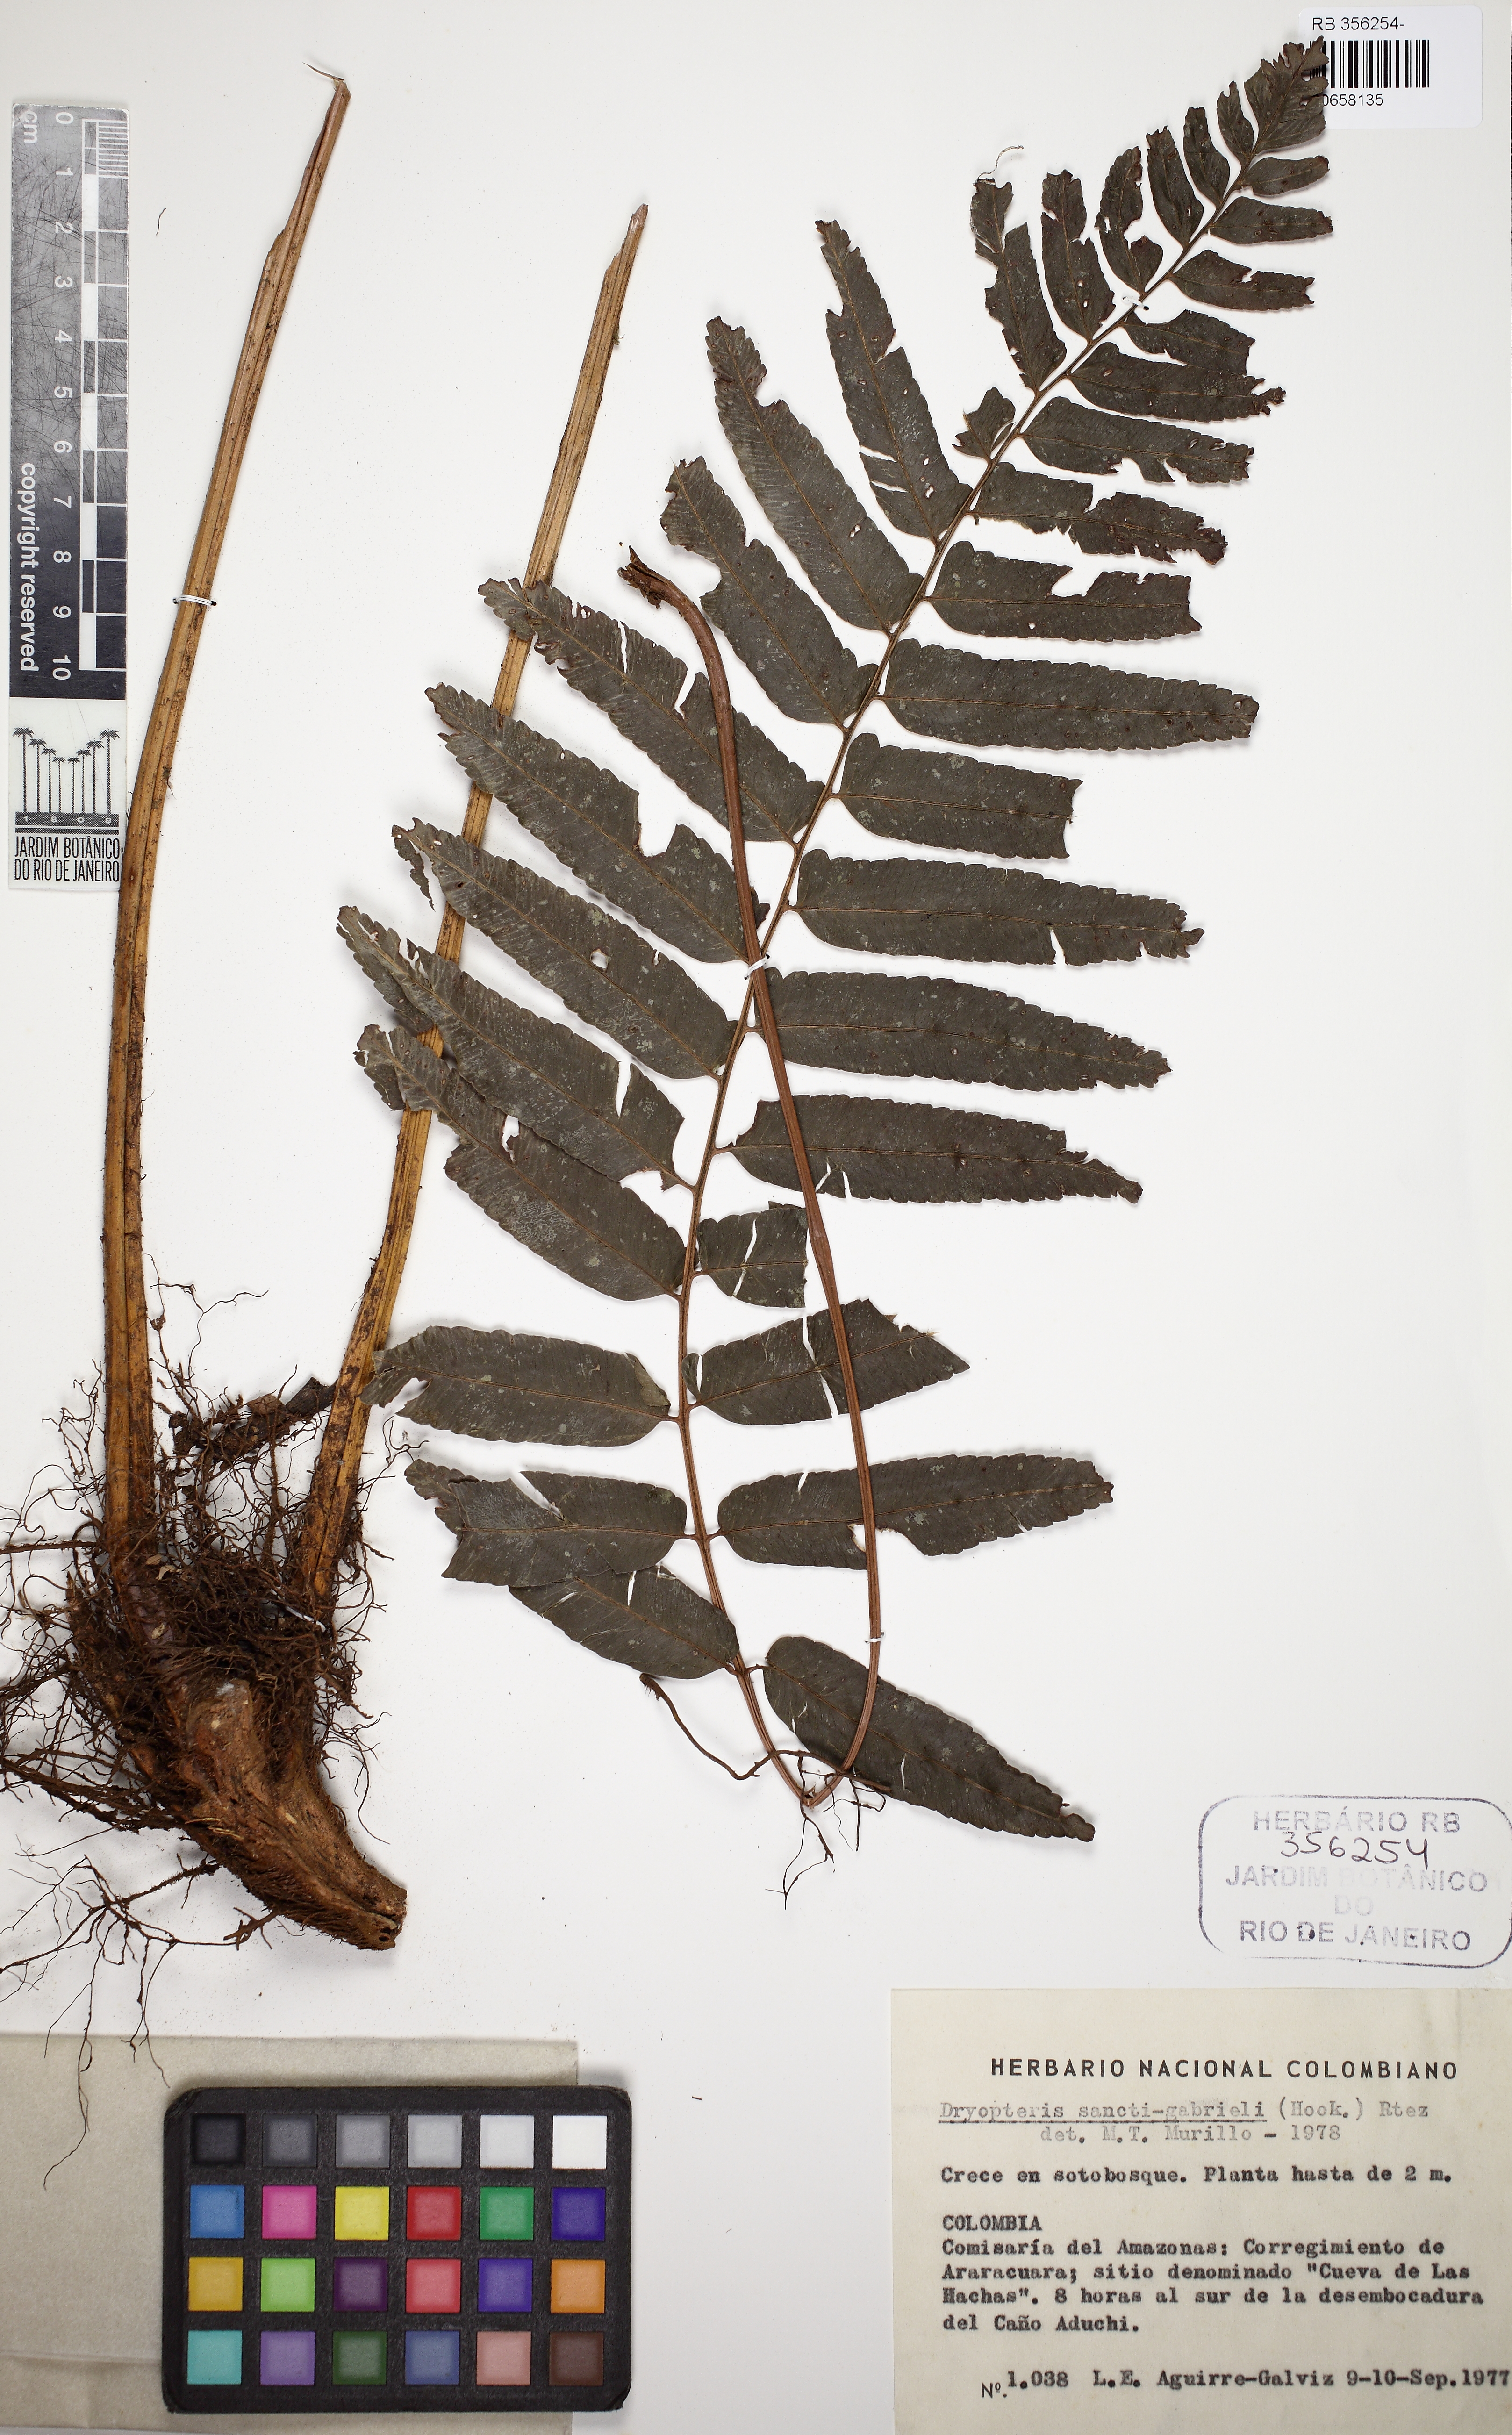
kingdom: Plantae
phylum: Tracheophyta
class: Polypodiopsida
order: Polypodiales
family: Dryopteridaceae
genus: Cyclodium
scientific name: Cyclodium guianense
